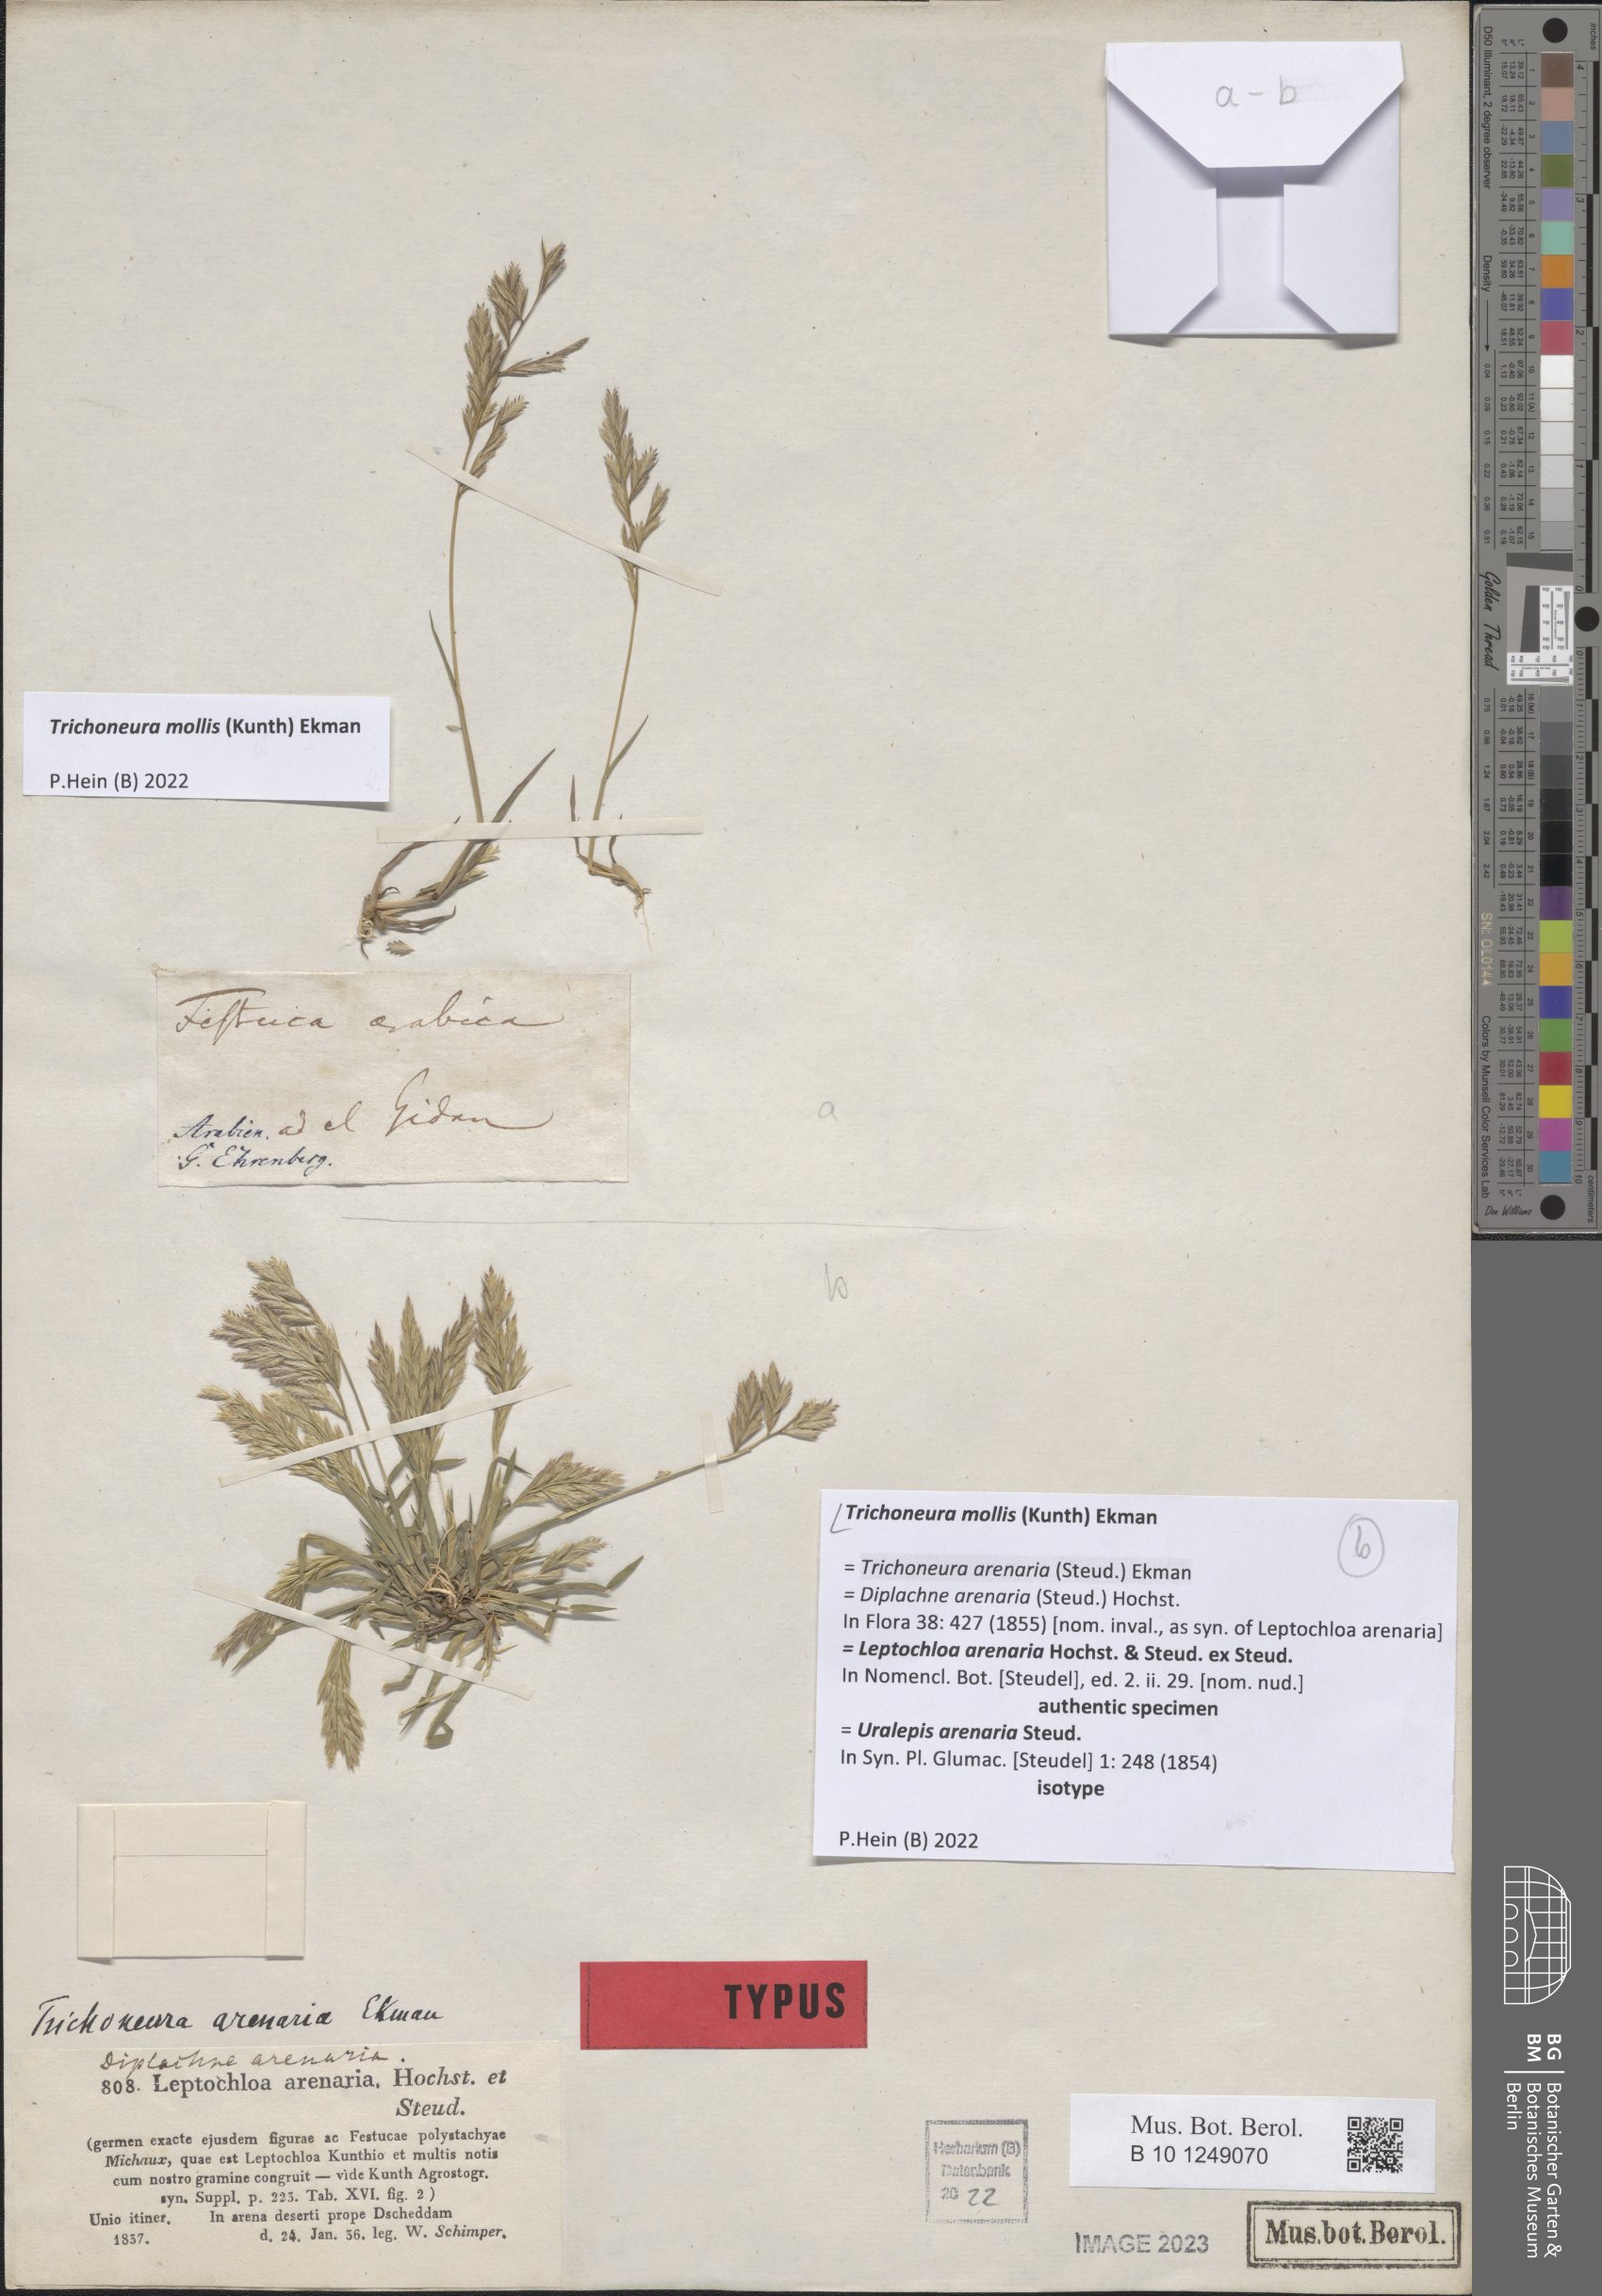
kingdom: Plantae
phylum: Tracheophyta
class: Liliopsida
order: Poales
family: Poaceae
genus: Trichoneura
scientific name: Trichoneura mollis
